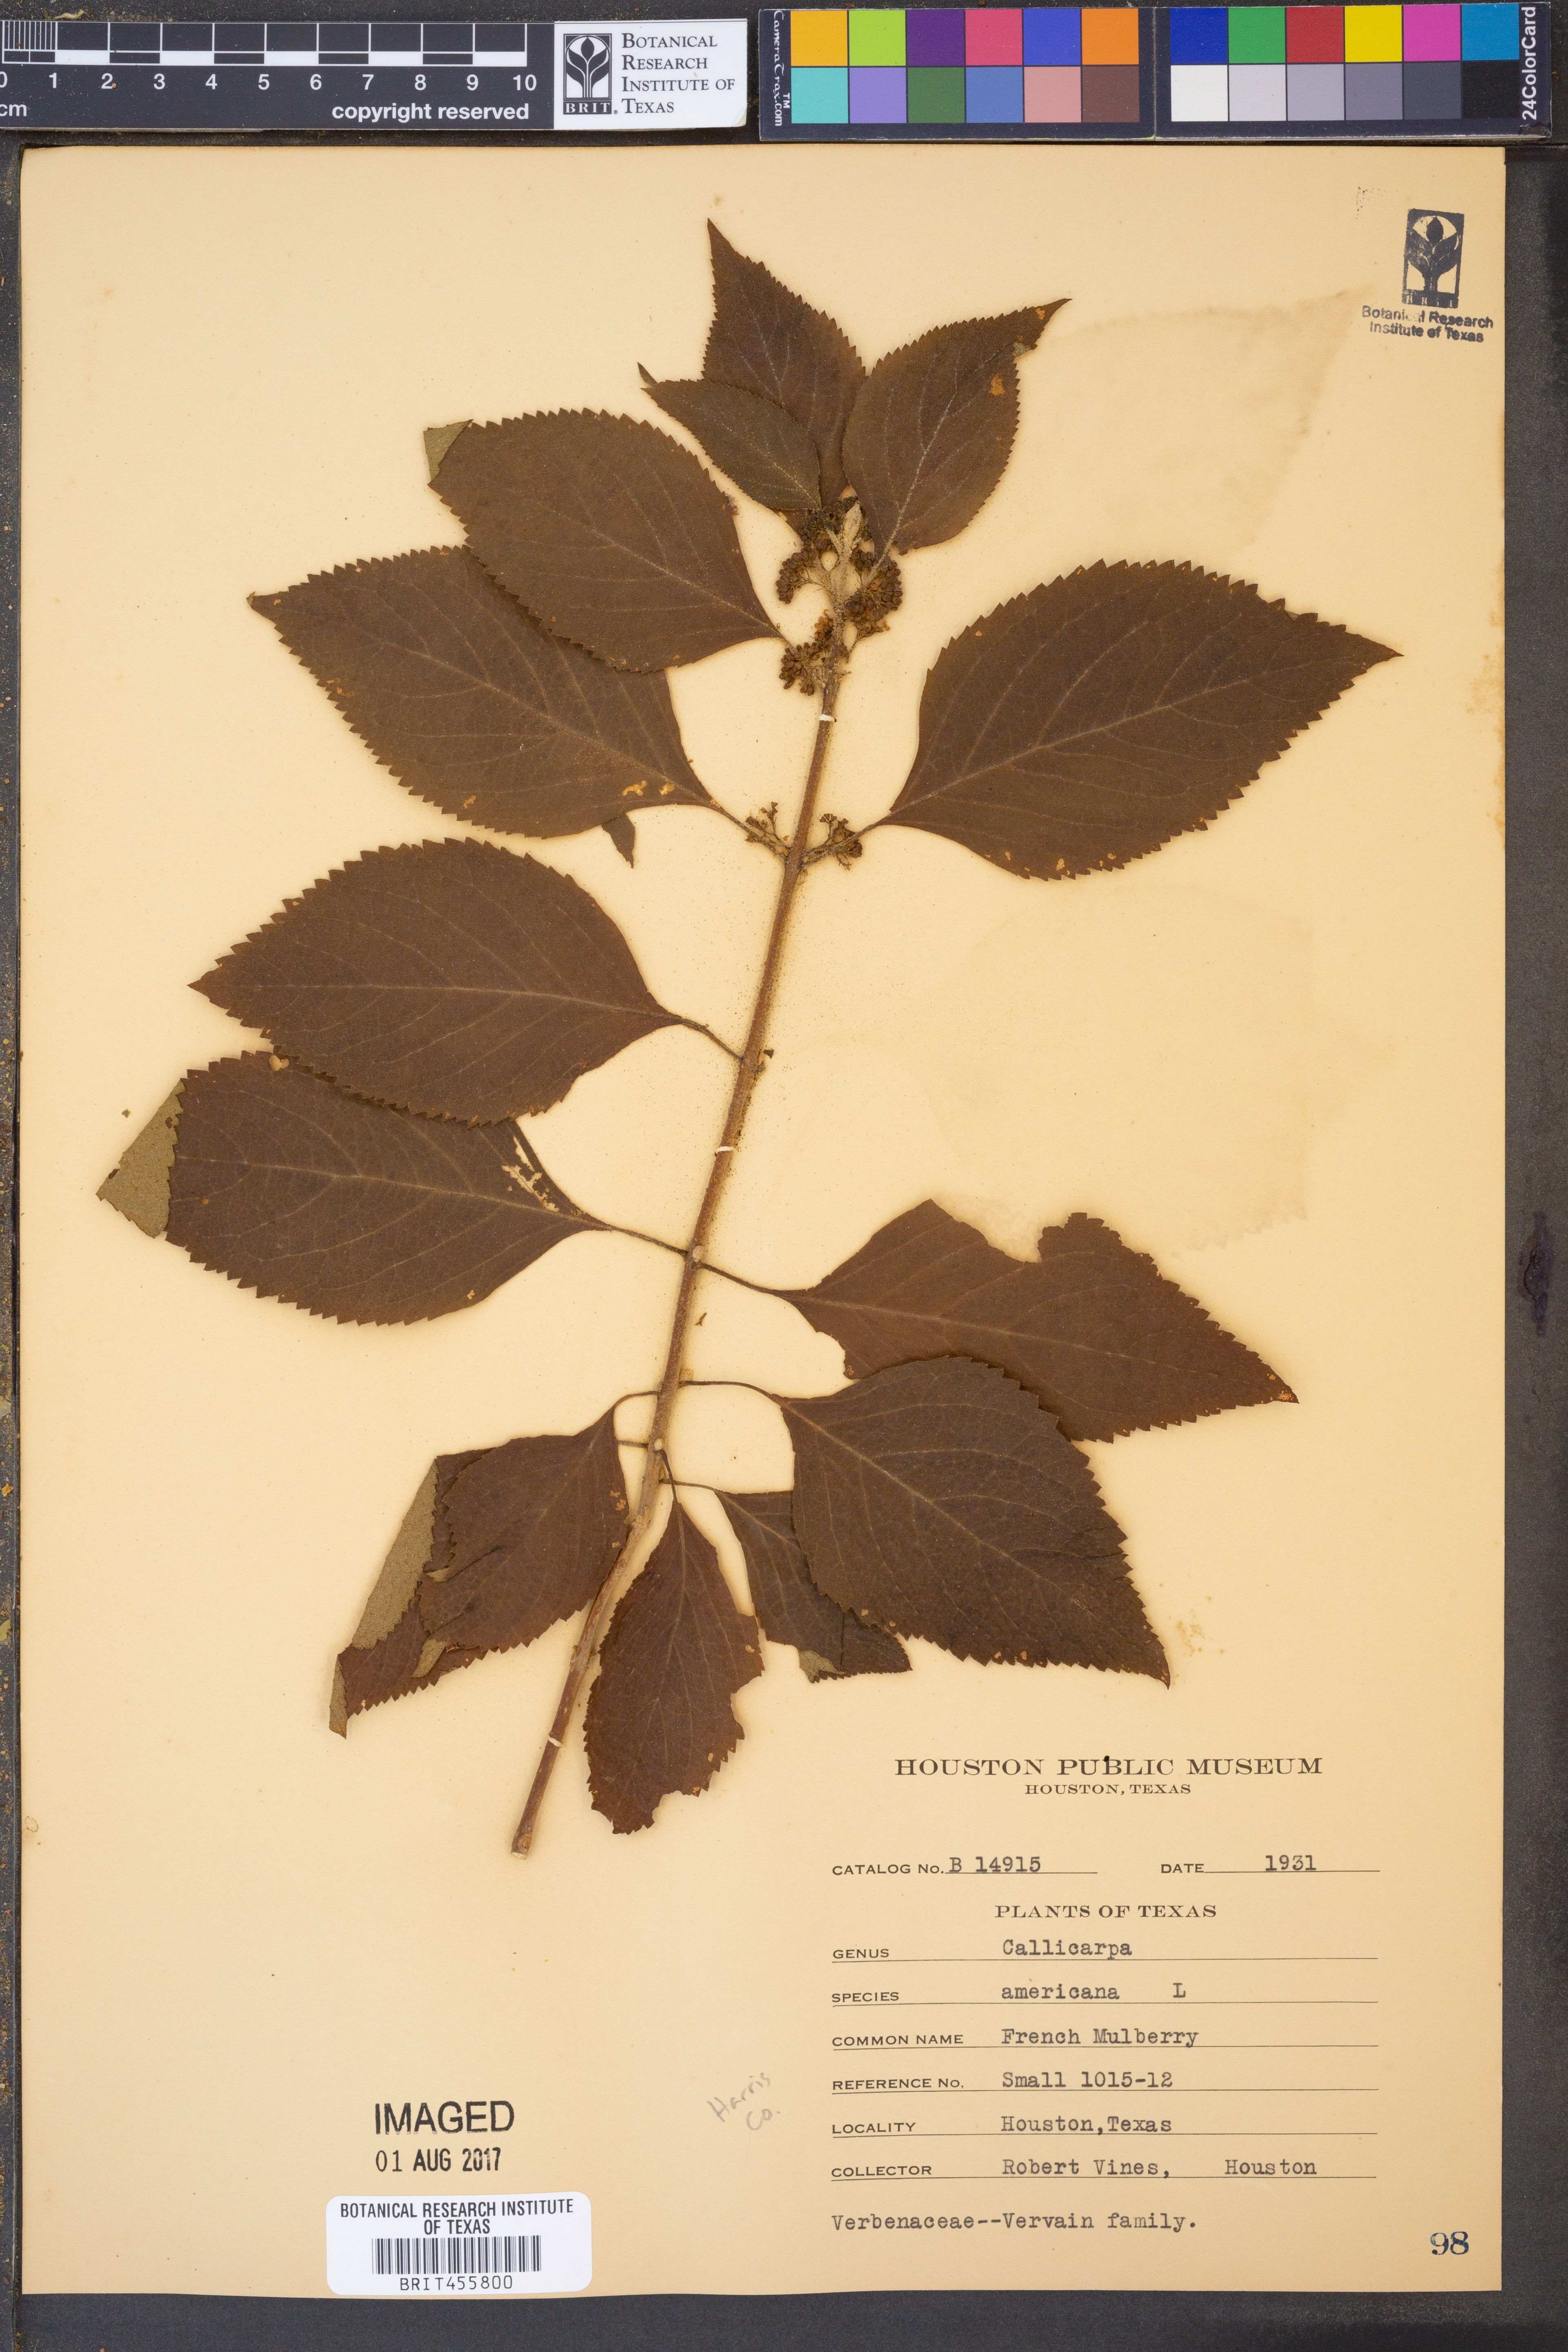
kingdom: Plantae
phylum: Tracheophyta
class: Magnoliopsida
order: Lamiales
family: Lamiaceae
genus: Callicarpa
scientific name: Callicarpa americana
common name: American beautyberry
